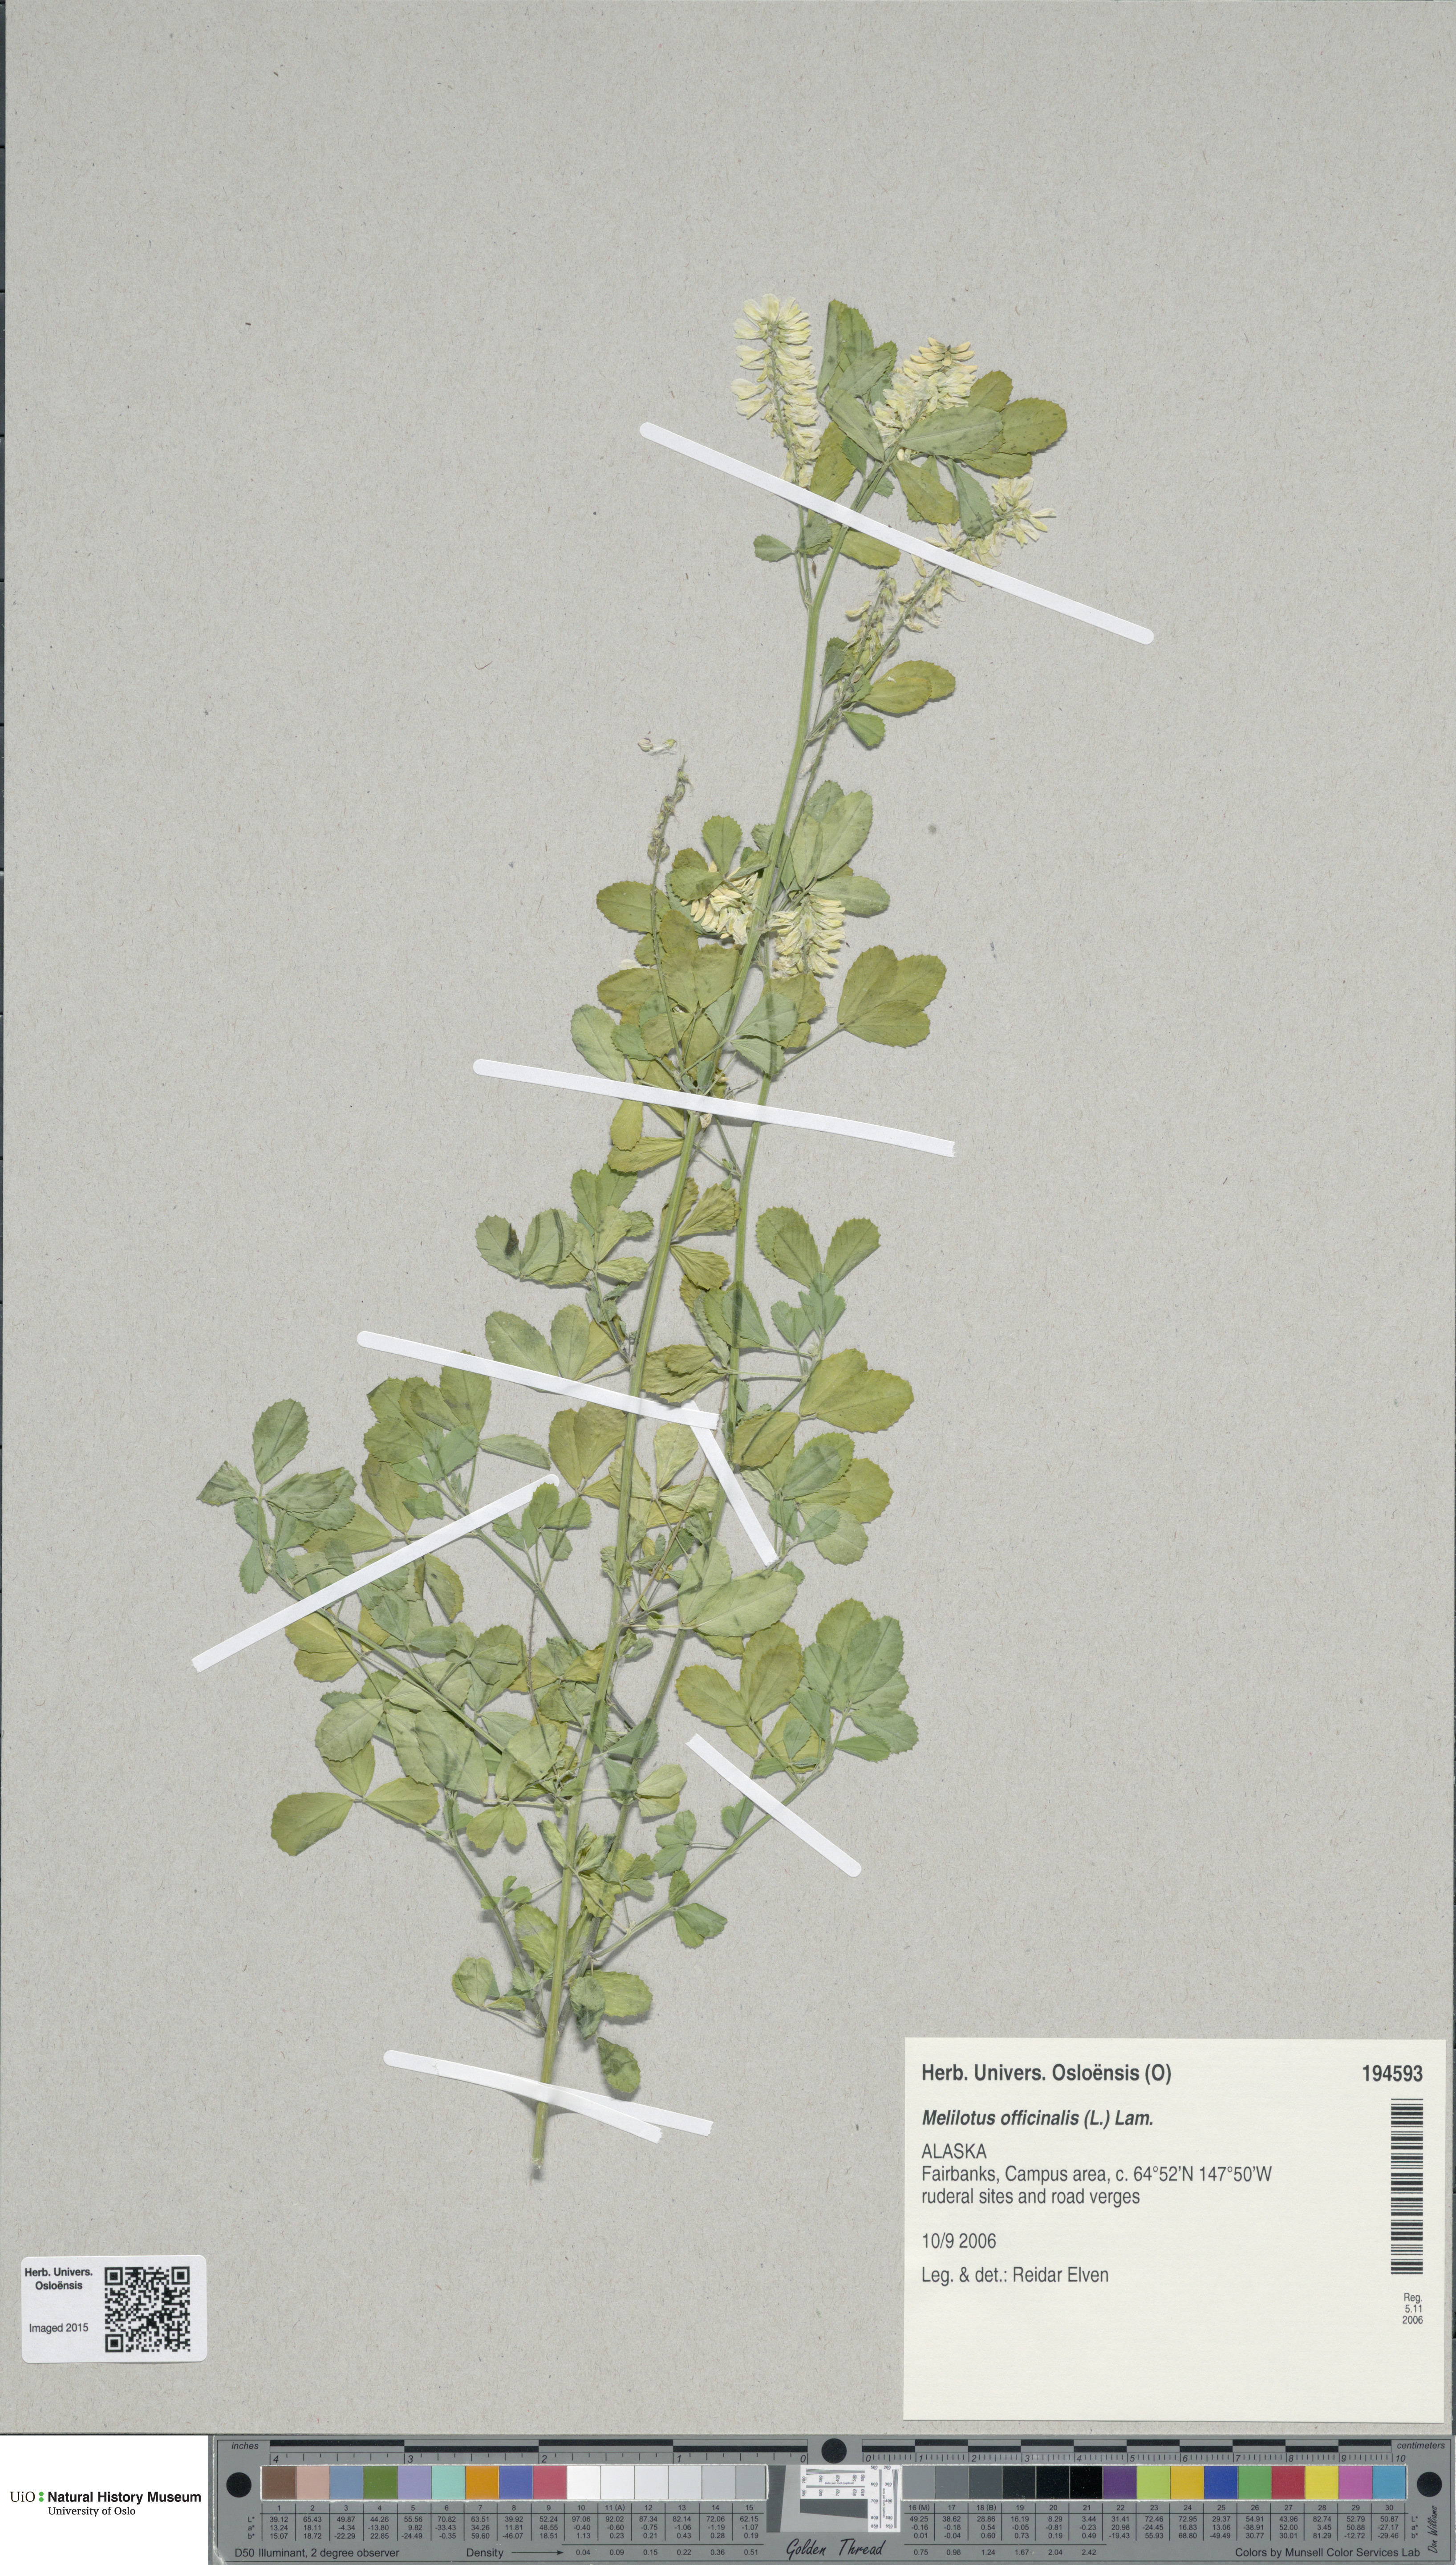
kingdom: Plantae
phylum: Tracheophyta
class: Magnoliopsida
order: Fabales
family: Fabaceae
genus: Melilotus
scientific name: Melilotus officinalis
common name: Sweetclover
